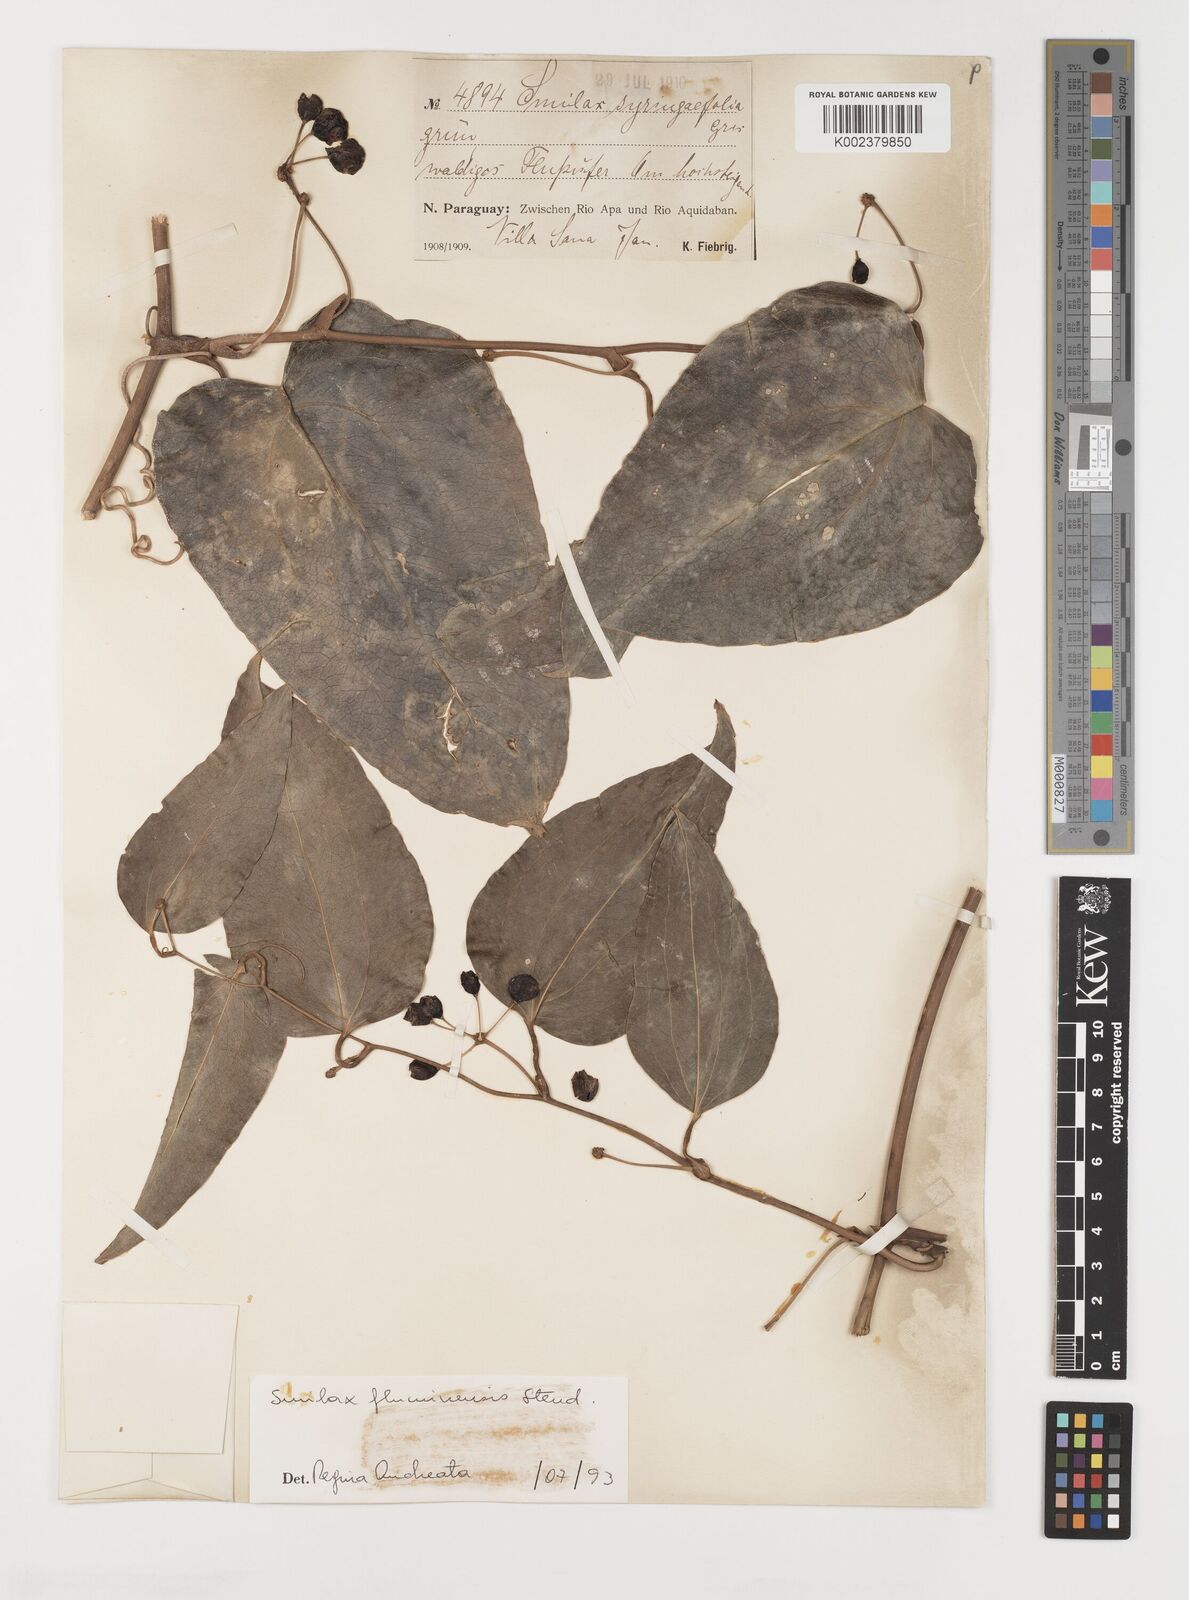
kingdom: Plantae
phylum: Tracheophyta
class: Liliopsida
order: Liliales
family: Smilacaceae
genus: Smilax
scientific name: Smilax fluminensis
